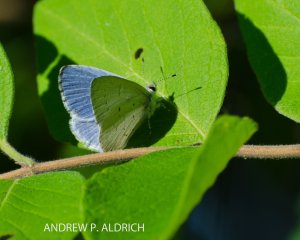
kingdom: Animalia
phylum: Arthropoda
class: Insecta
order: Lepidoptera
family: Lycaenidae
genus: Celastrina
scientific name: Celastrina lucia
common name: Northern Spring Azure
